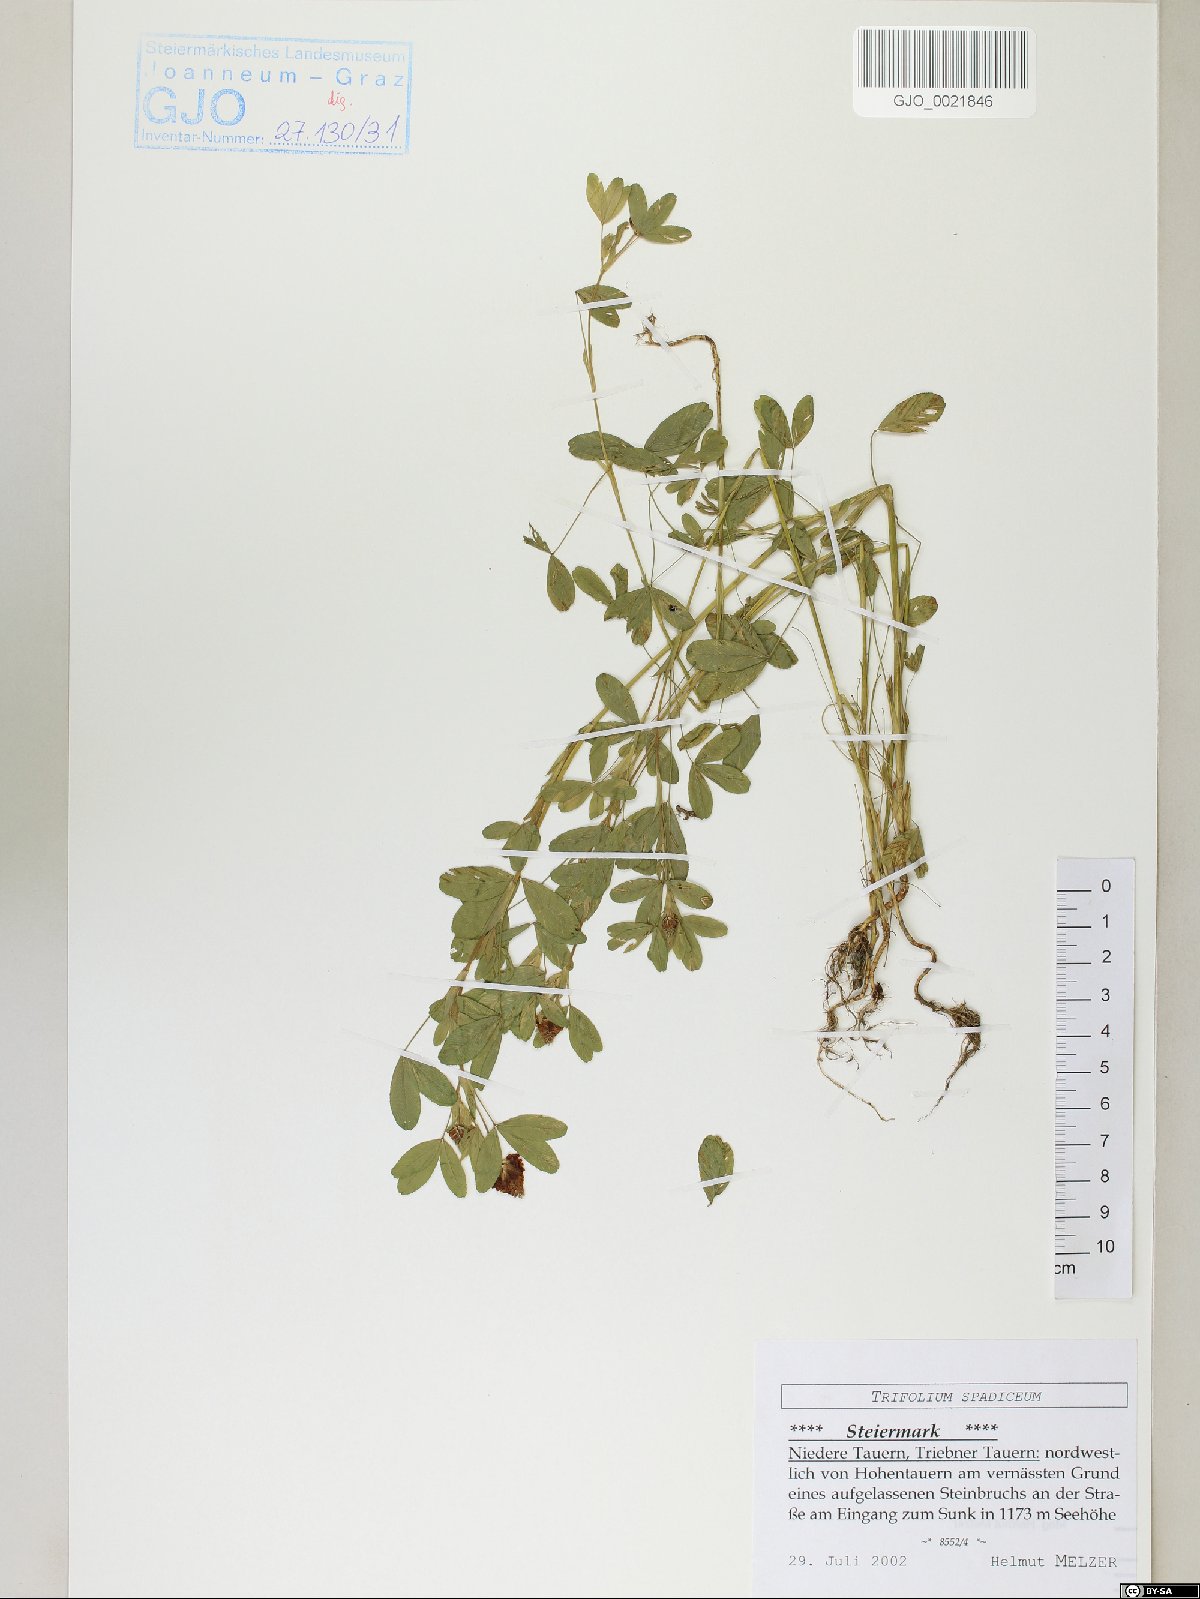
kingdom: Plantae
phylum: Tracheophyta
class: Magnoliopsida
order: Fabales
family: Fabaceae
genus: Trifolium
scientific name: Trifolium spadiceum
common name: Brown moor clover
